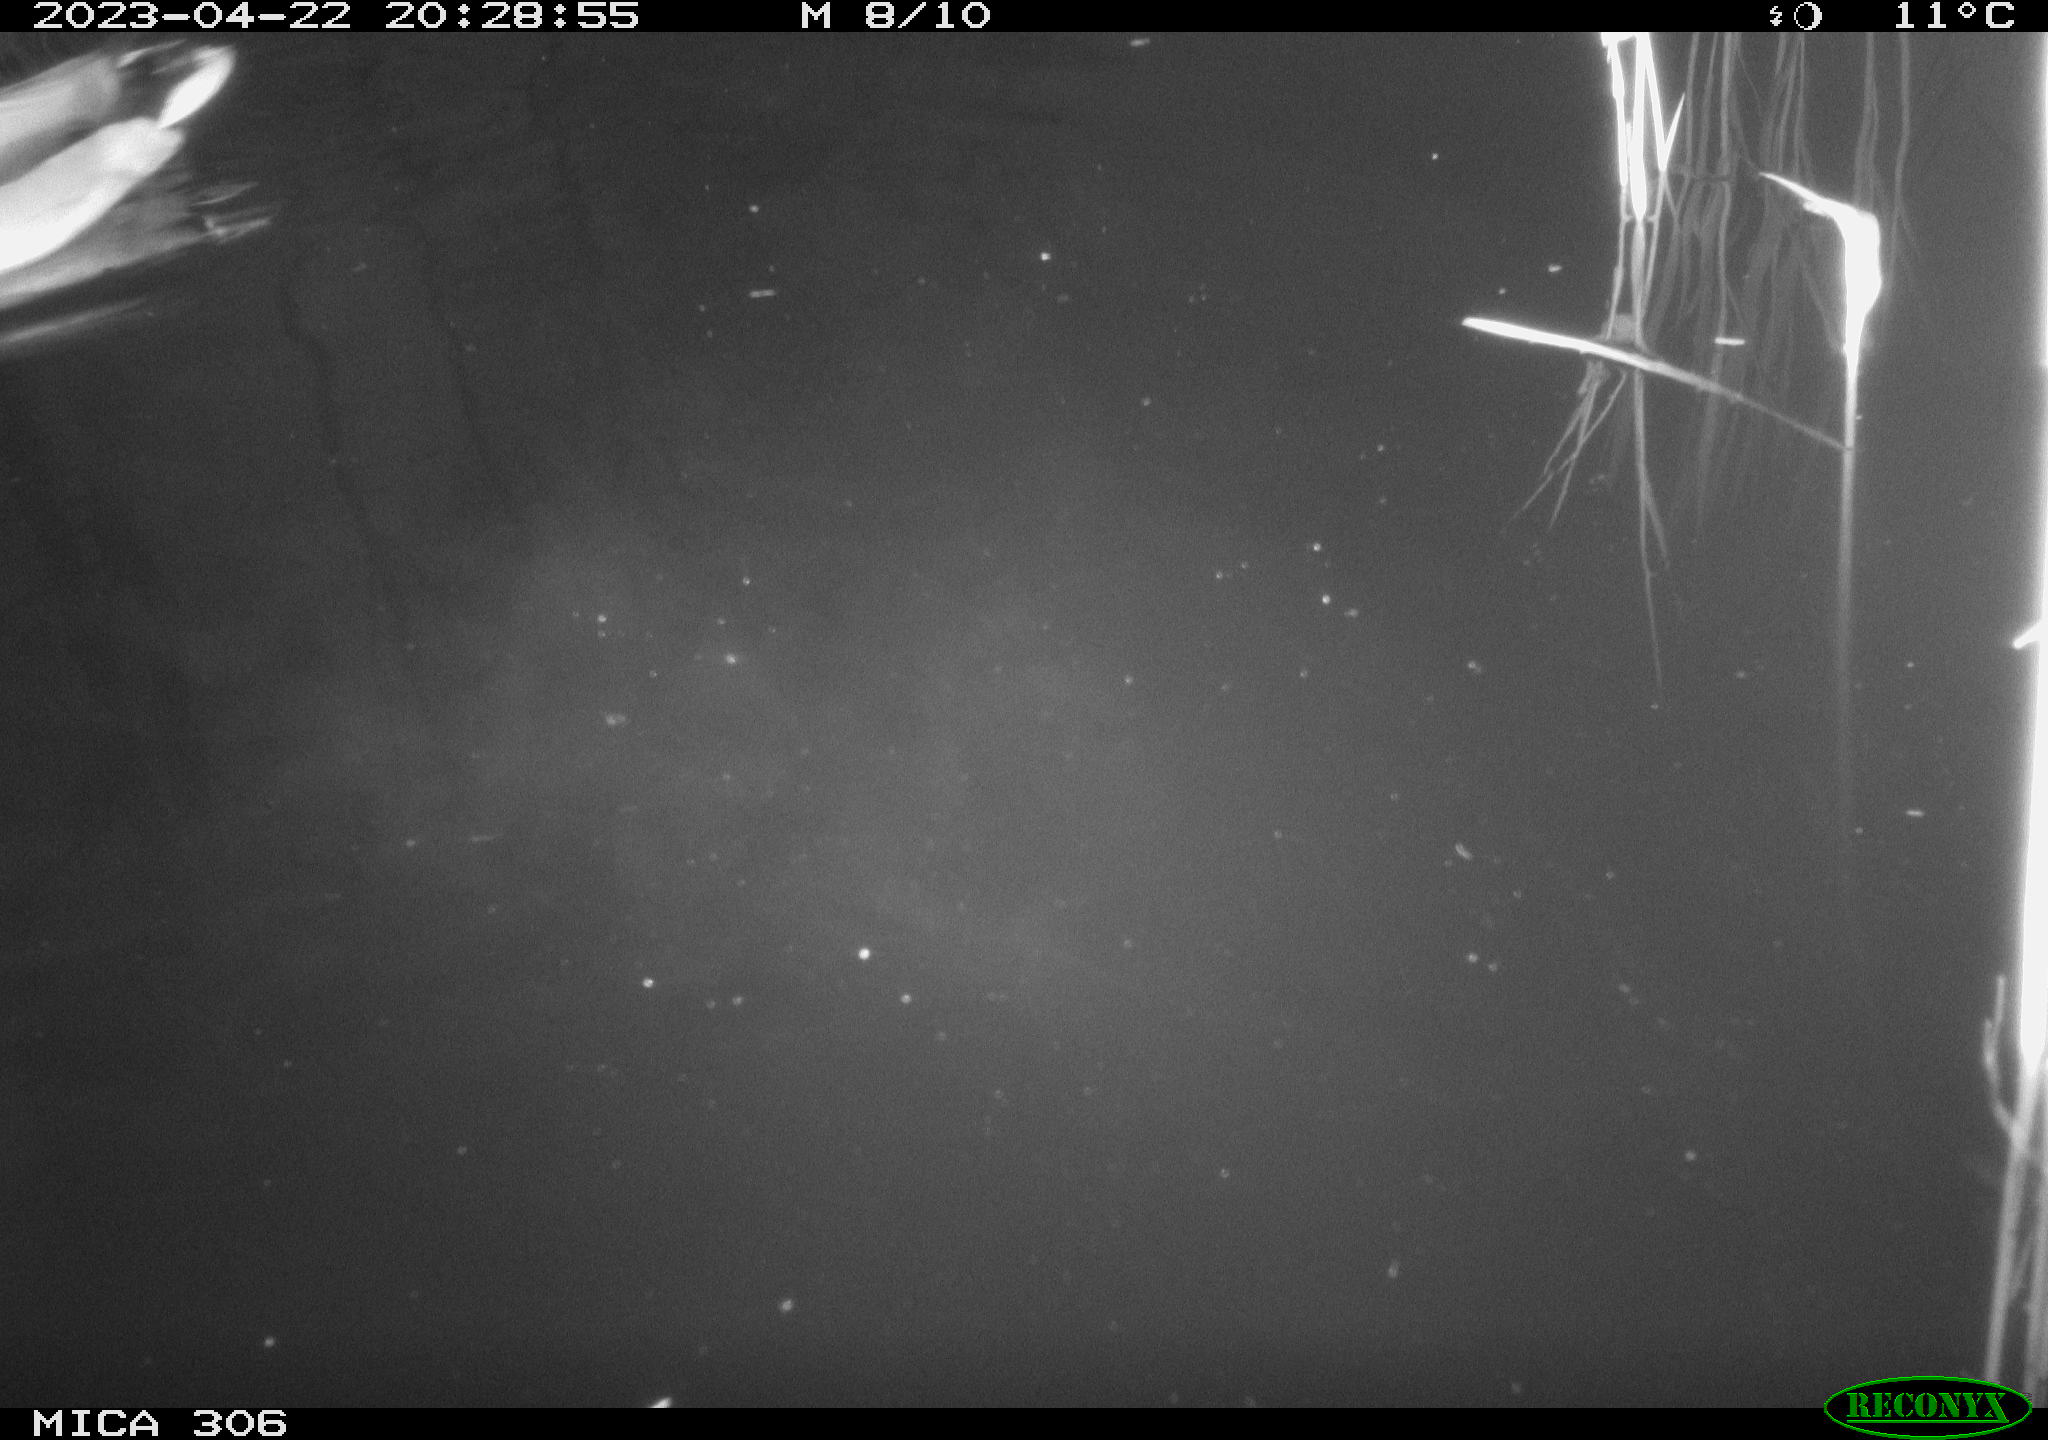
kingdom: Animalia
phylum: Chordata
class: Aves
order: Anseriformes
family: Anatidae
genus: Anas
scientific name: Anas
